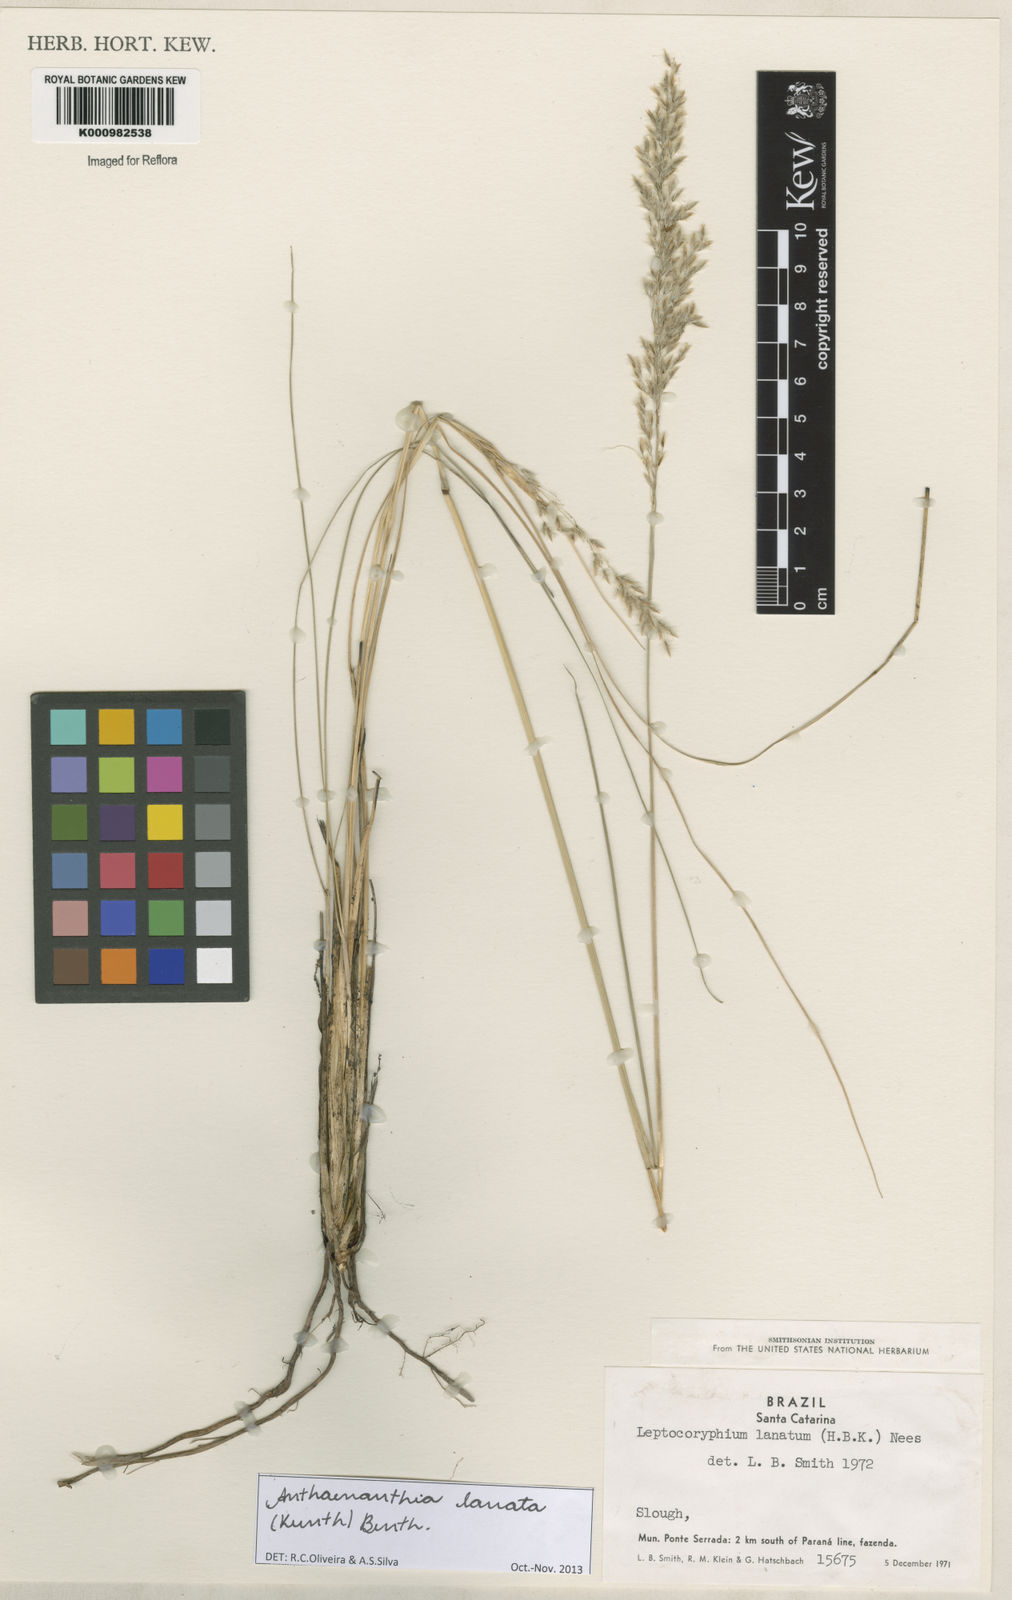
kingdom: Plantae
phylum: Tracheophyta
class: Liliopsida
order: Poales
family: Poaceae
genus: Anthenantia
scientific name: Anthenantia lanata
